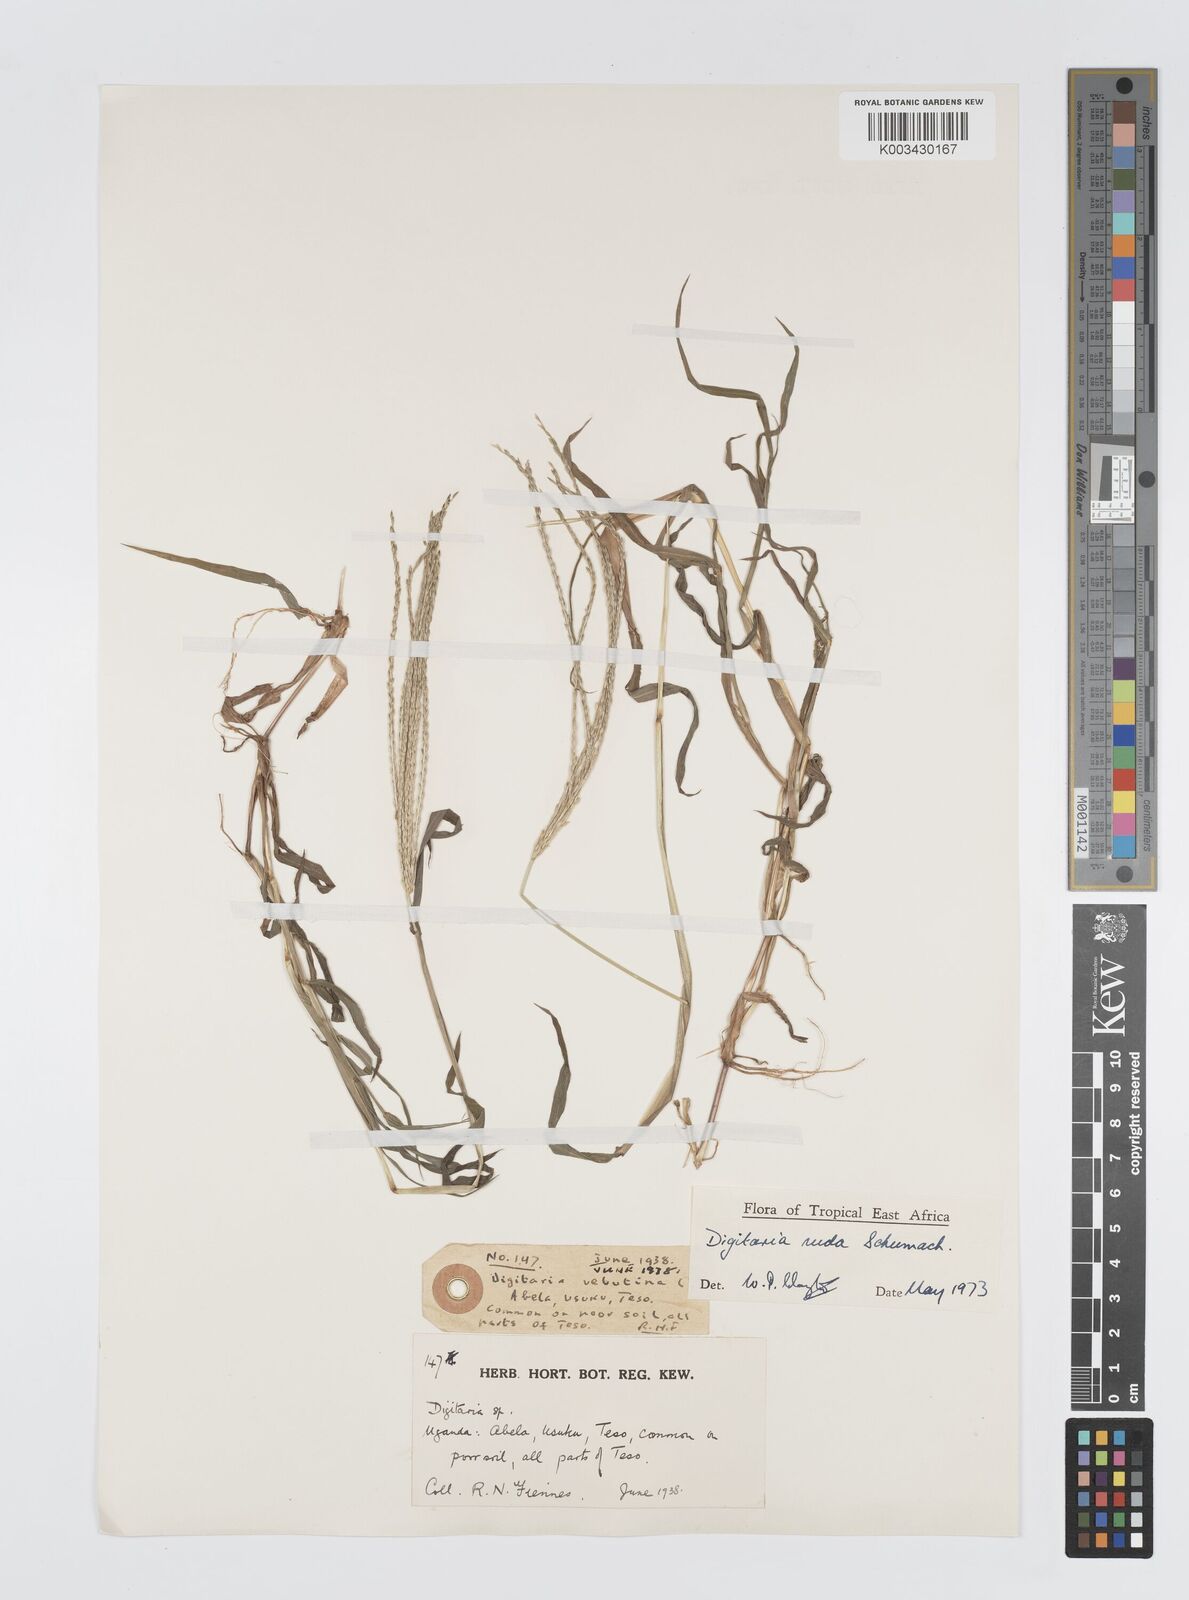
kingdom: Plantae
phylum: Tracheophyta
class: Liliopsida
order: Poales
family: Poaceae
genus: Digitaria
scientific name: Digitaria nuda
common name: Naked crabgrass
